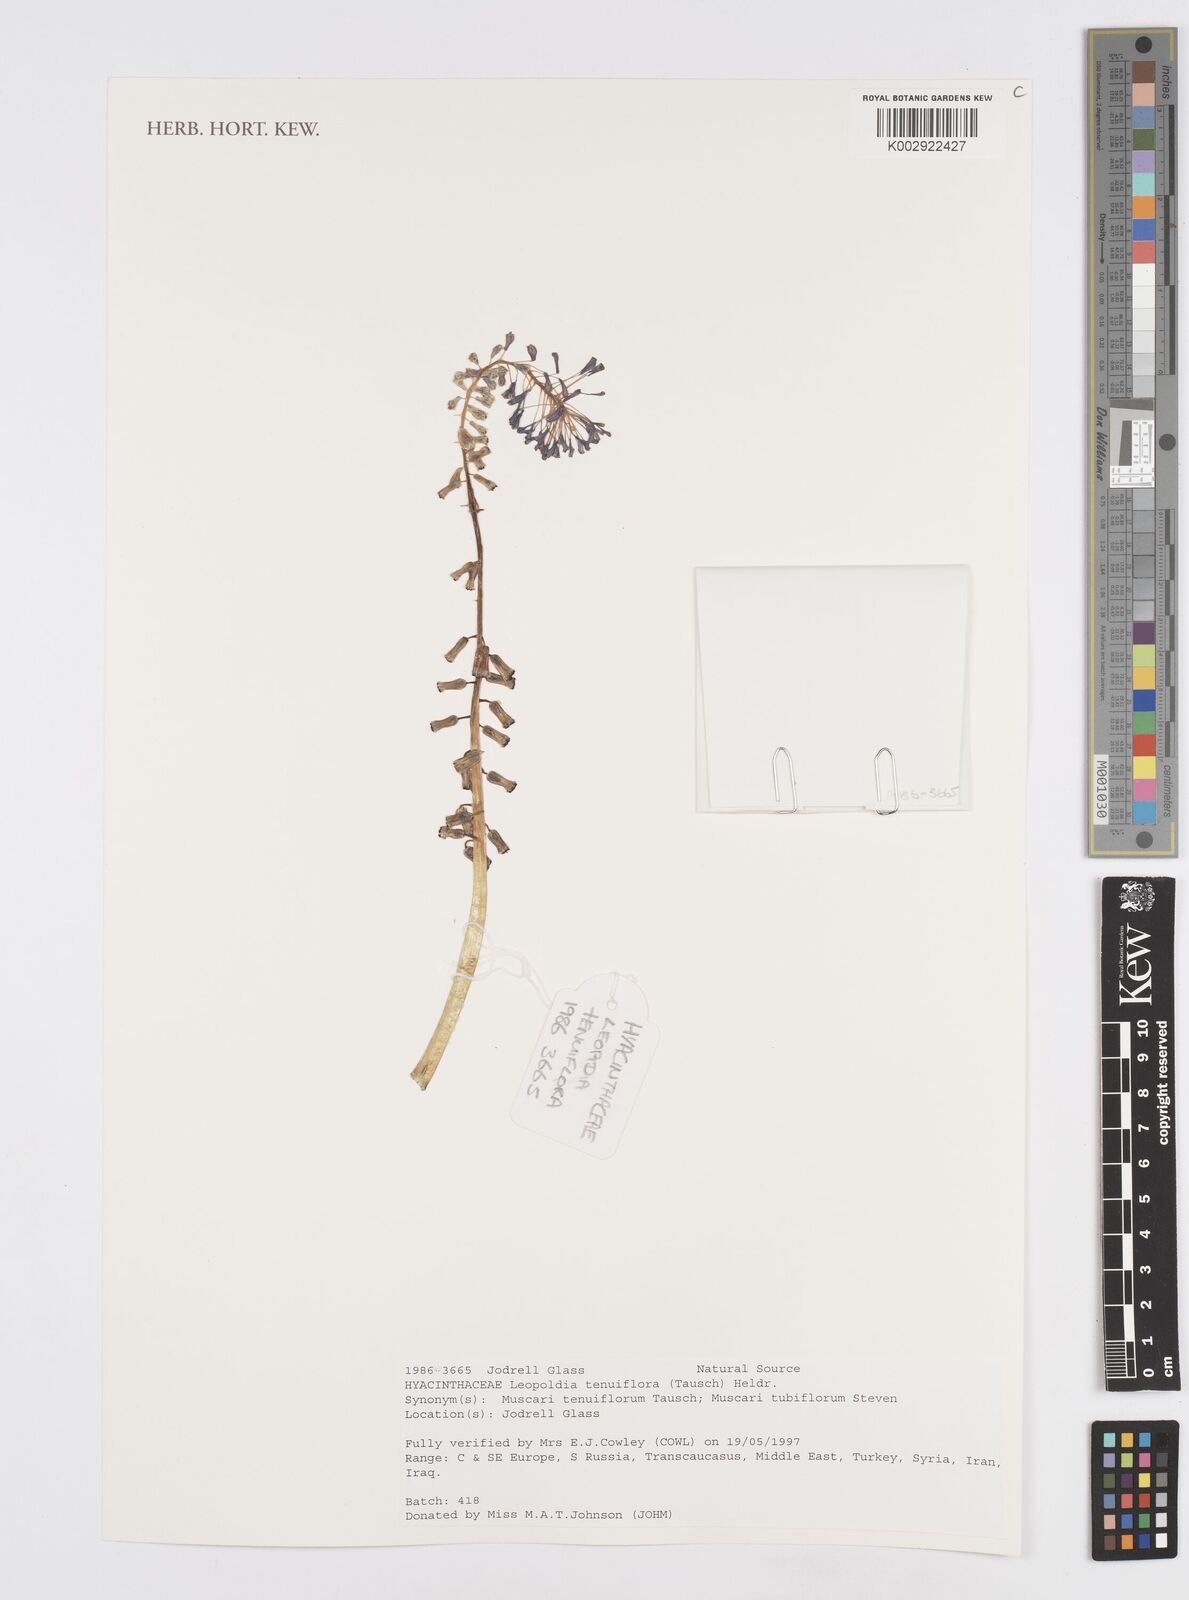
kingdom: Plantae
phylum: Tracheophyta
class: Liliopsida
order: Asparagales
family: Asparagaceae
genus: Muscari
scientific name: Muscari tenuiflorum
